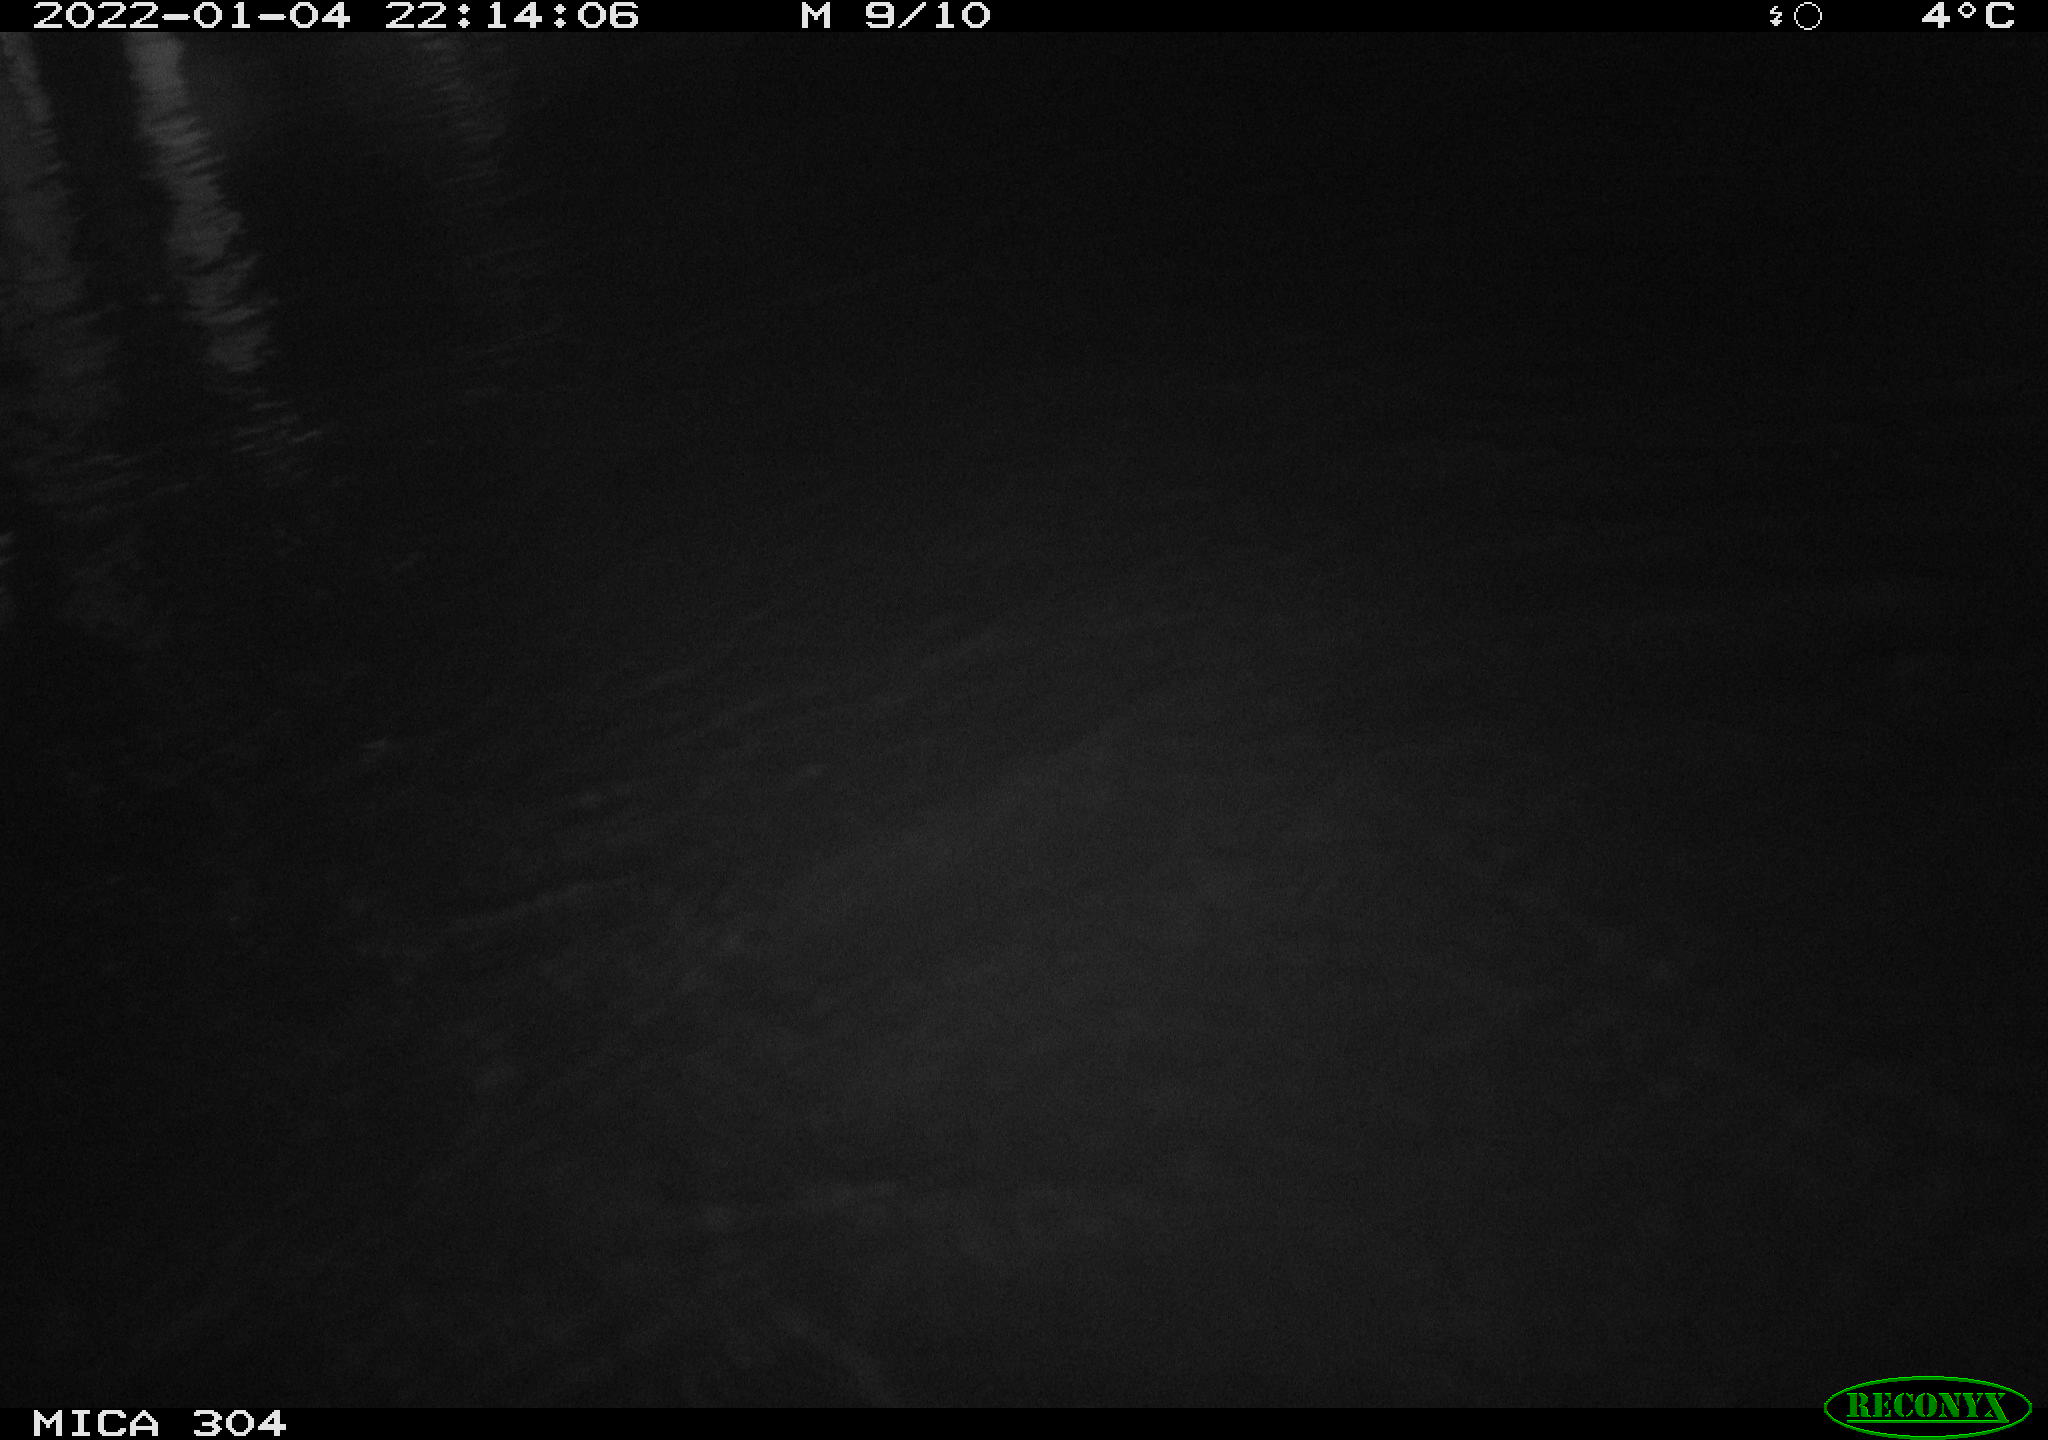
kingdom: Animalia
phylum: Chordata
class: Aves
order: Gruiformes
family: Rallidae
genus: Fulica
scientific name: Fulica atra
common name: Eurasian coot
